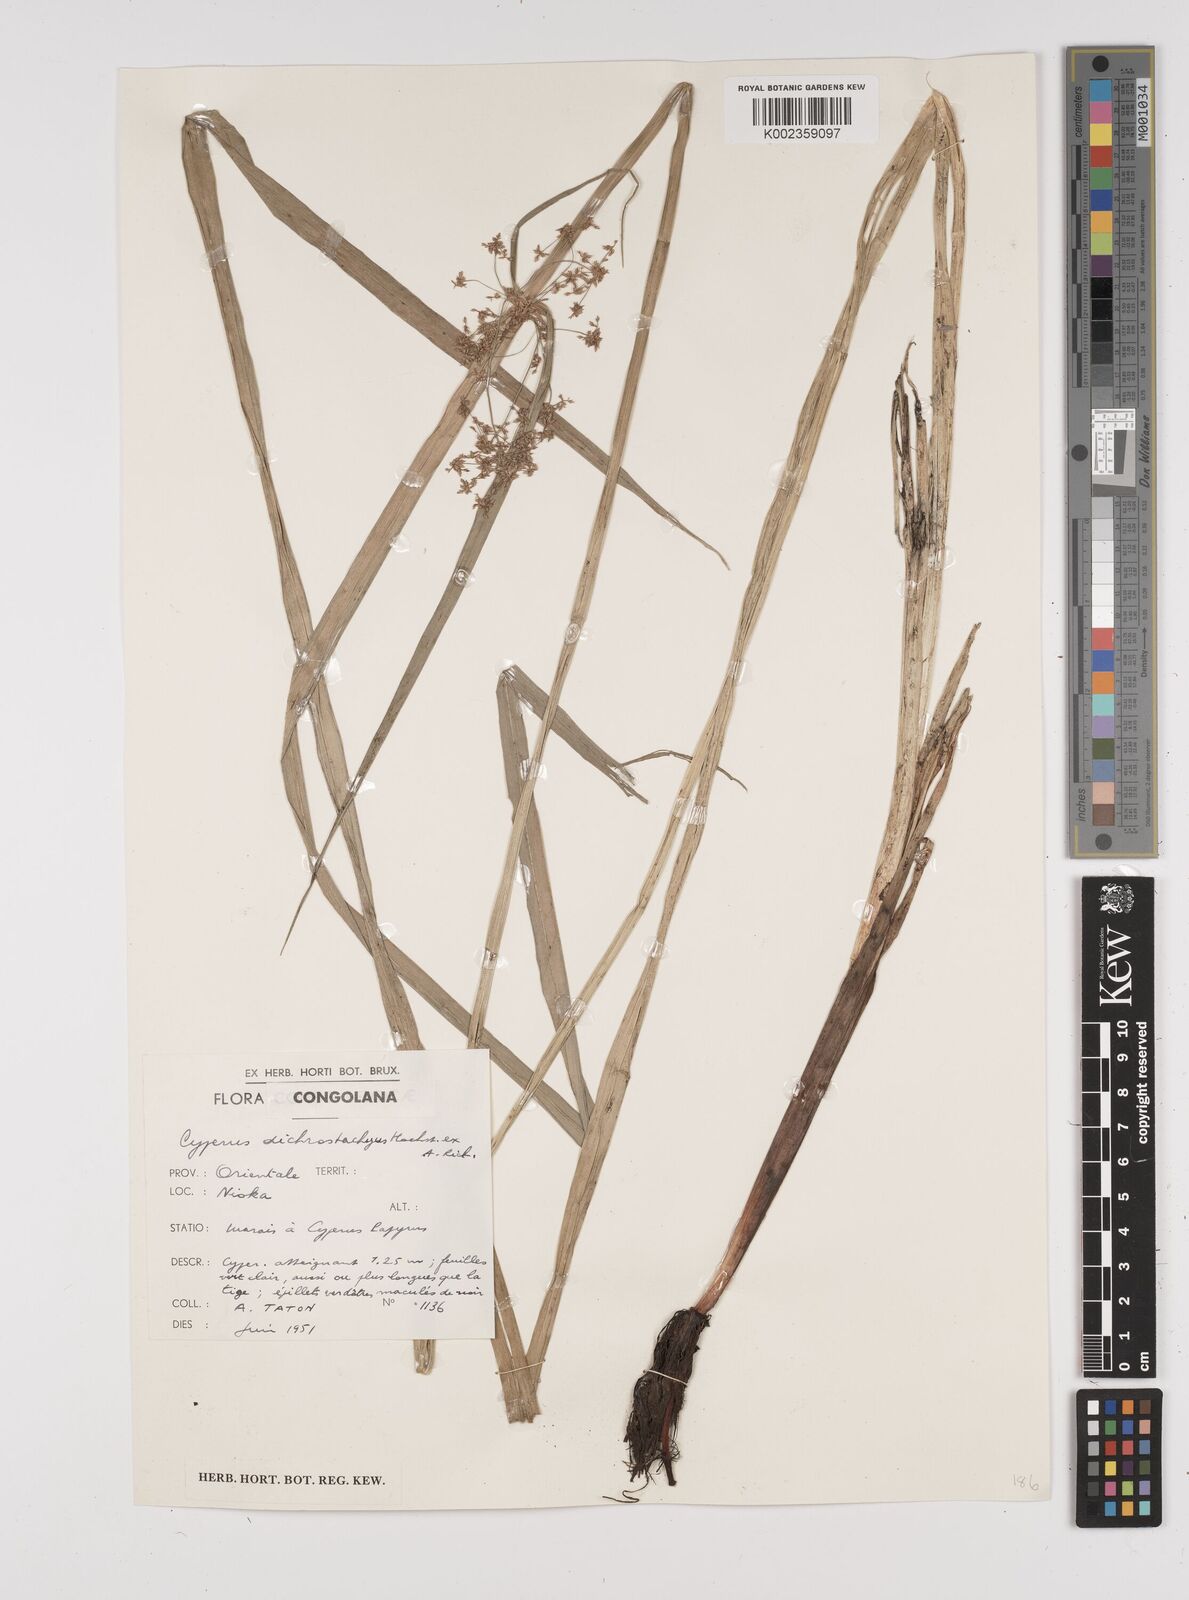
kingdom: Plantae
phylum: Tracheophyta
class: Liliopsida
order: Poales
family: Cyperaceae
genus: Cyperus
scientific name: Cyperus dichrostachyus
